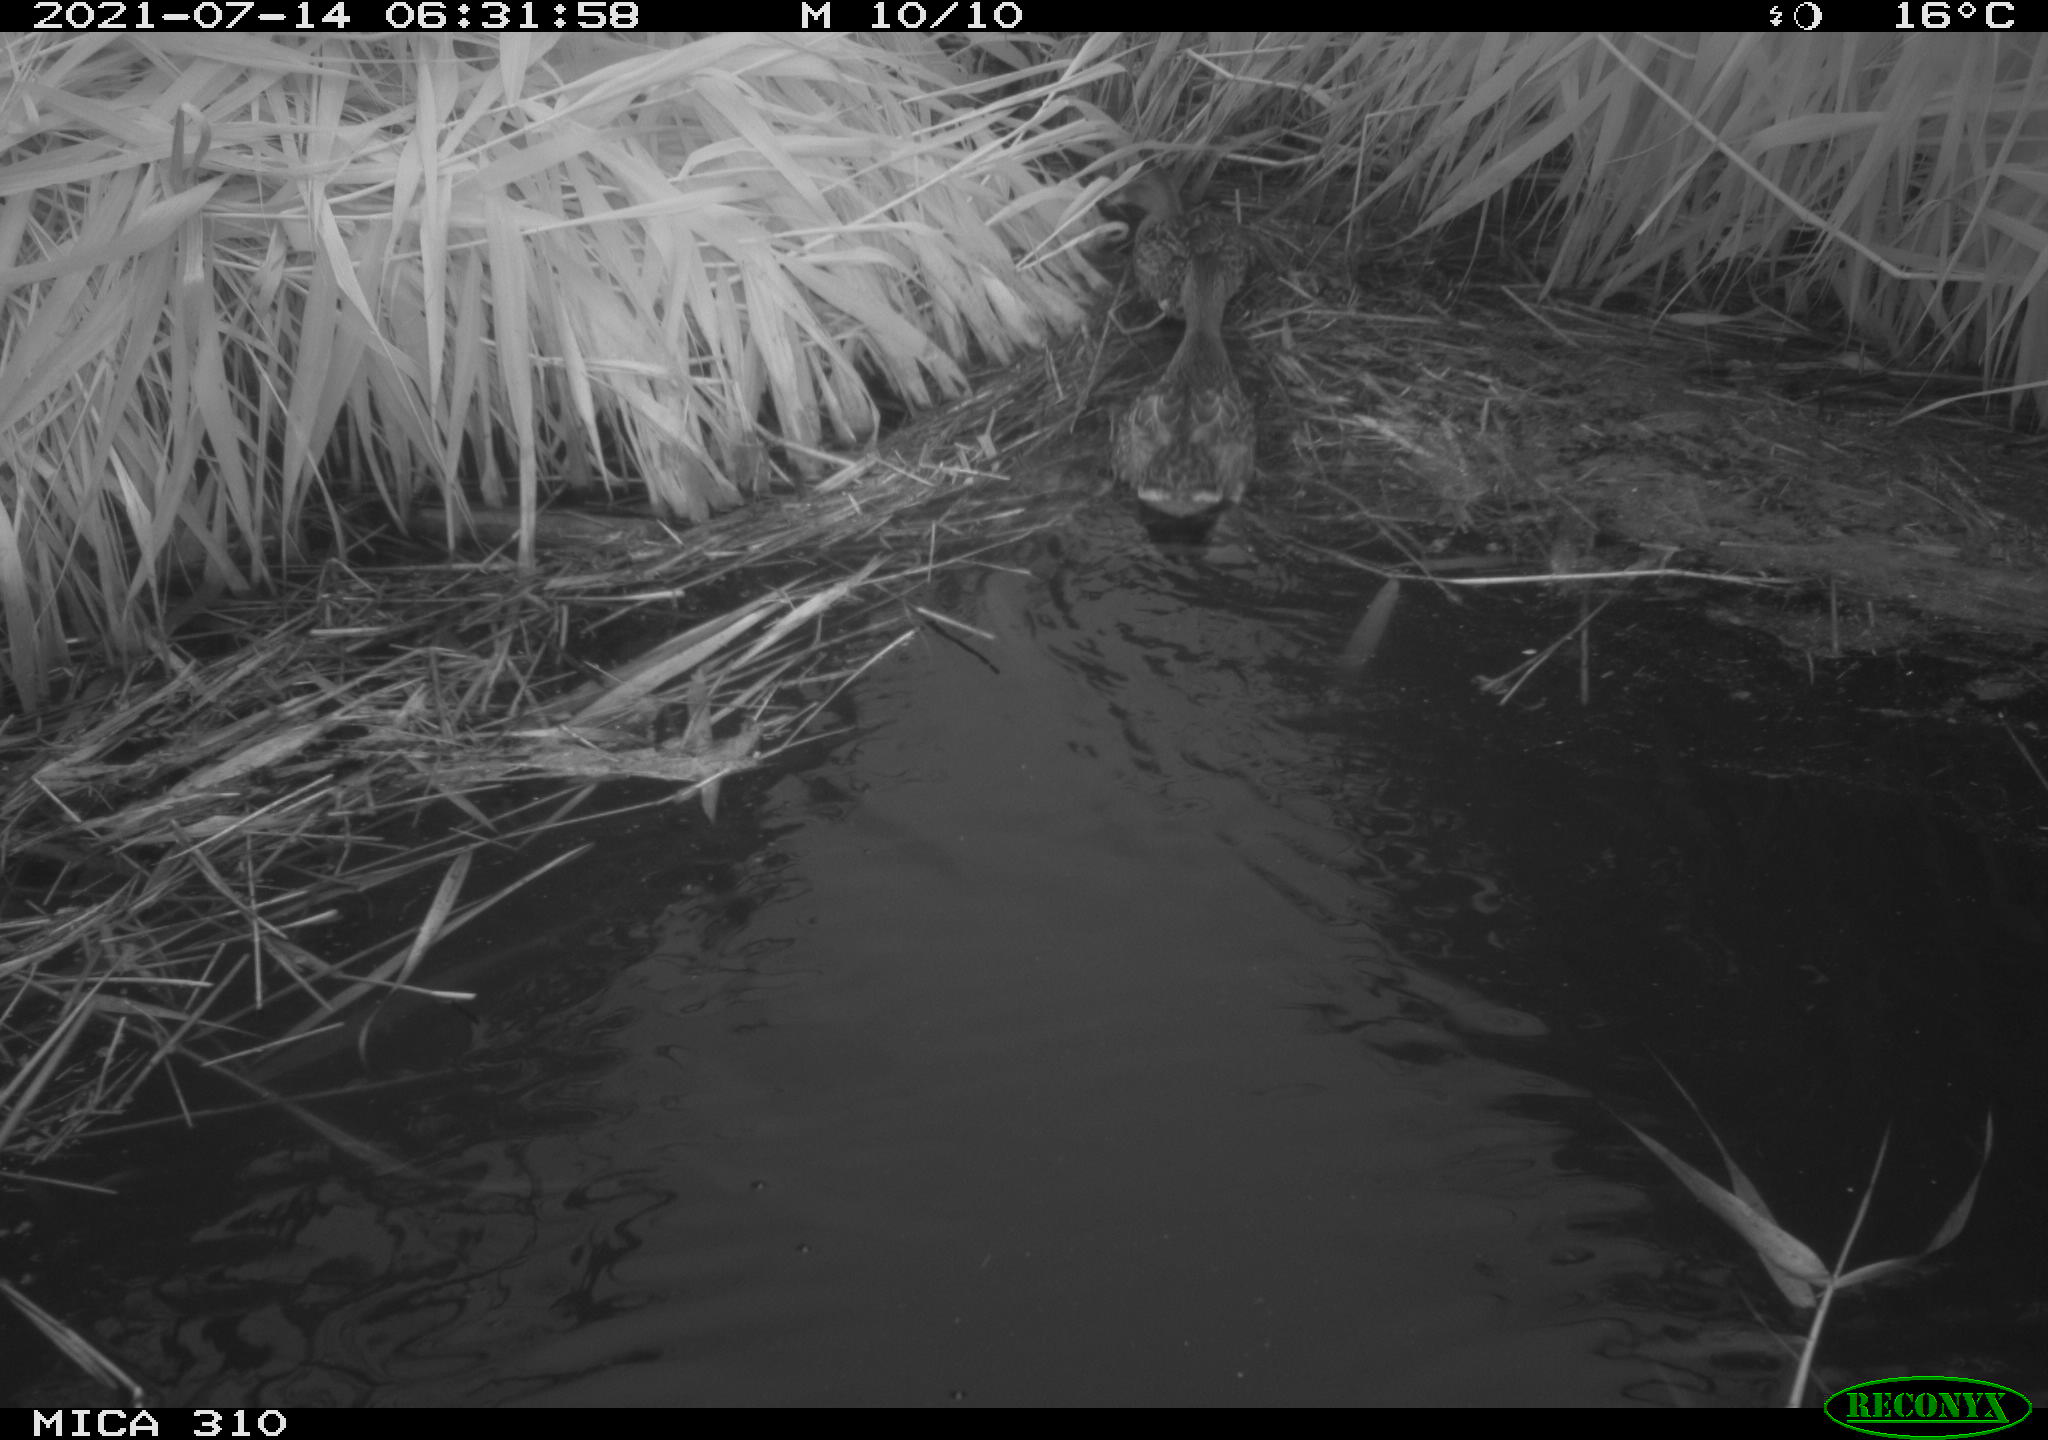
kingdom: Animalia
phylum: Chordata
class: Aves
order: Anseriformes
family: Anatidae
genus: Anas
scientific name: Anas platyrhynchos
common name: Mallard
